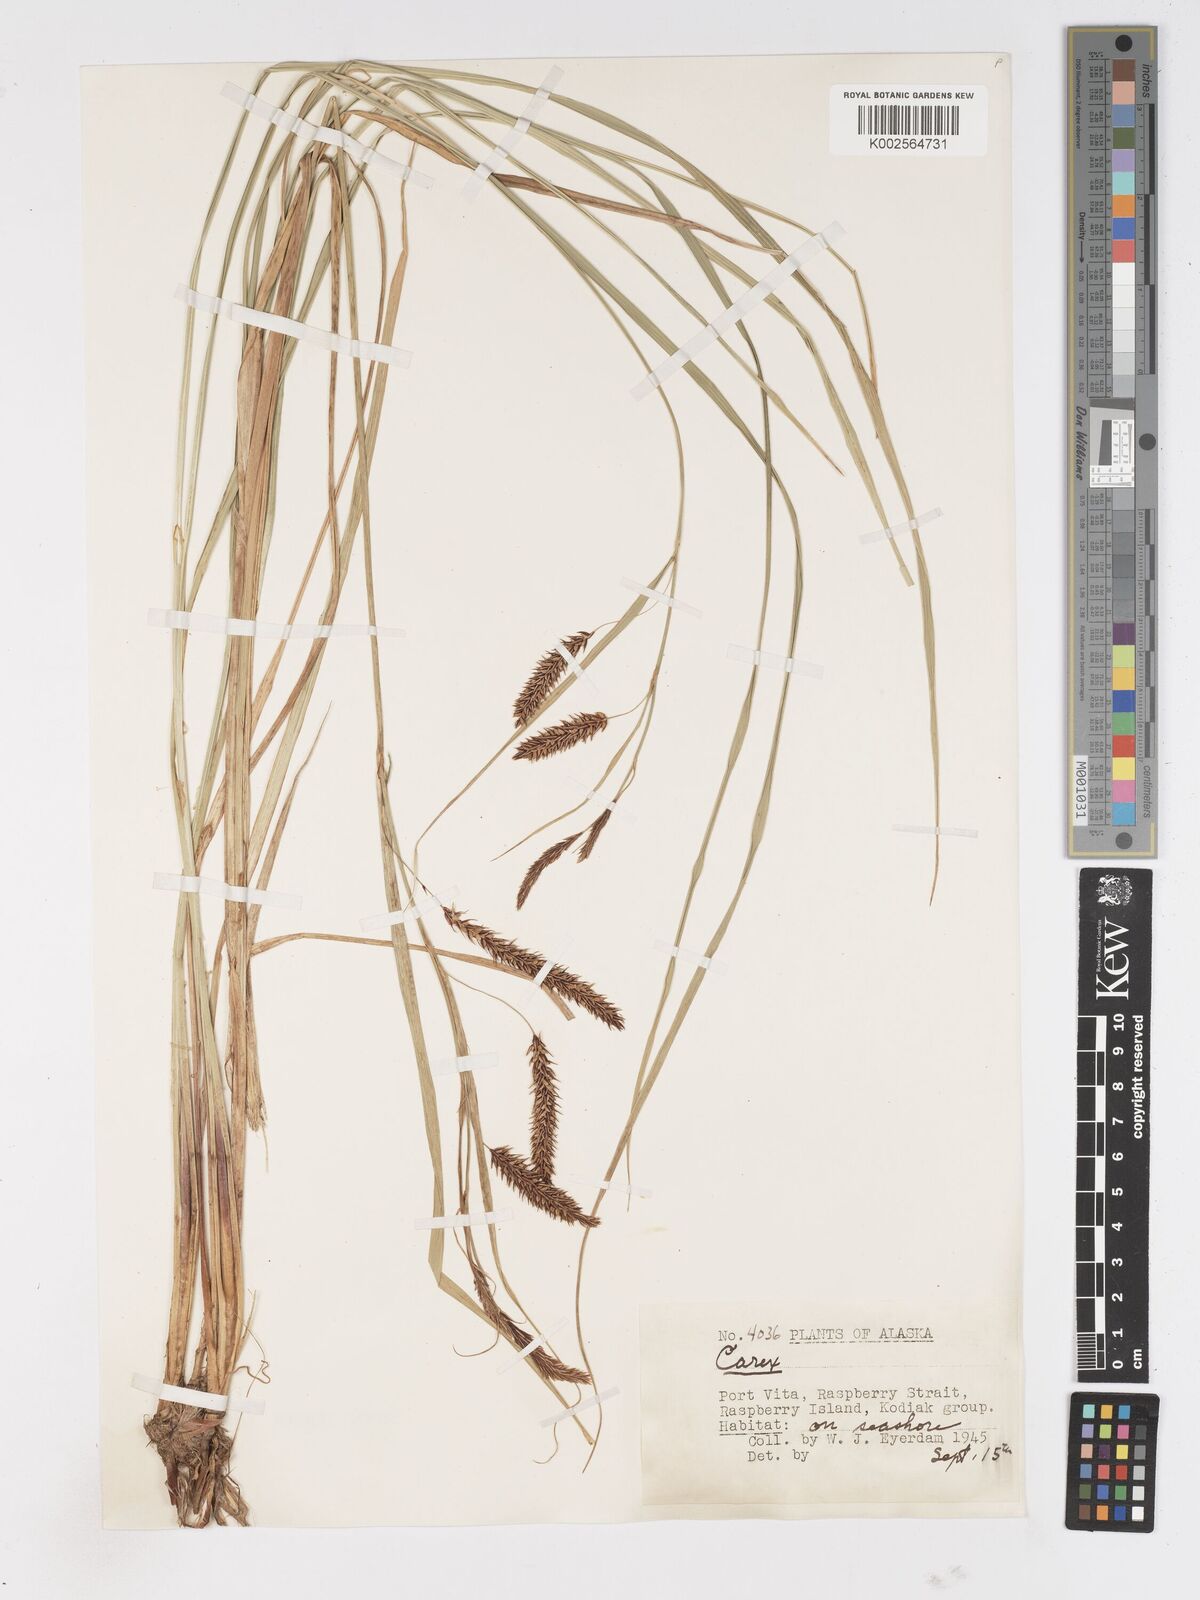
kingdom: Plantae
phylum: Tracheophyta
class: Liliopsida
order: Poales
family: Cyperaceae
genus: Carex
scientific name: Carex
